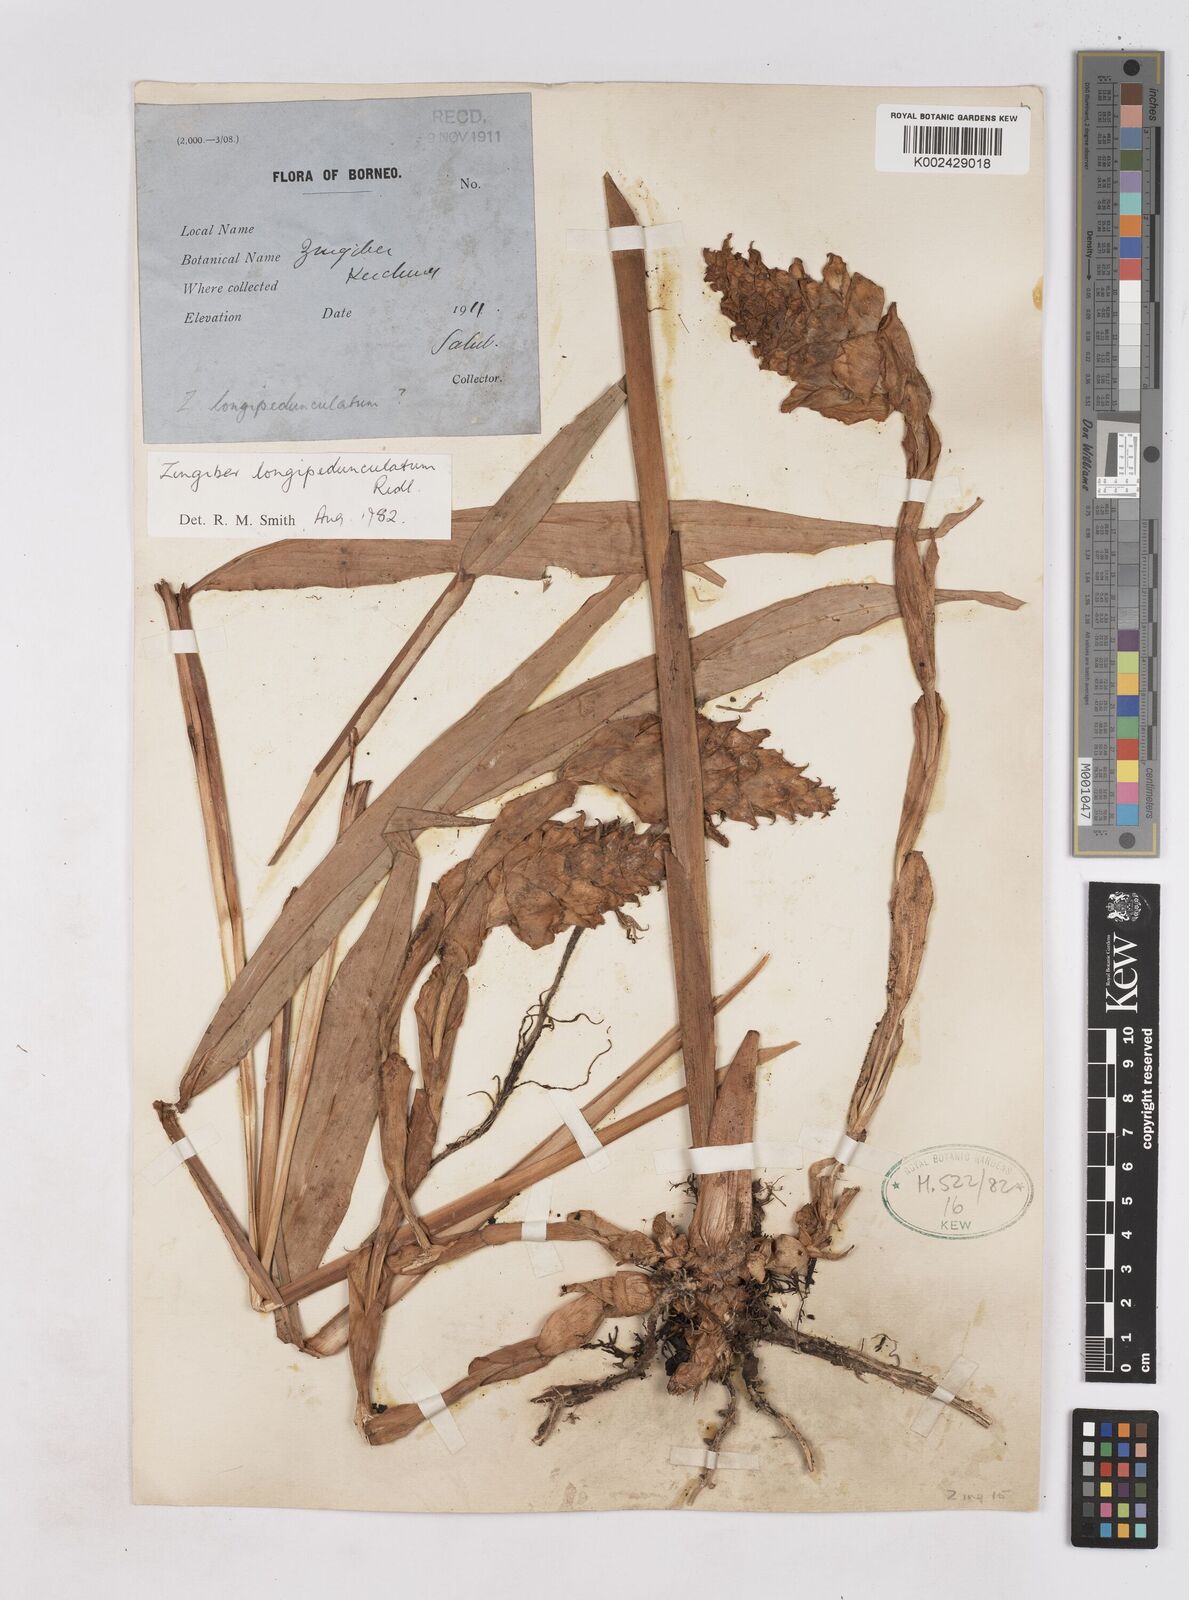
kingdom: Plantae
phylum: Tracheophyta
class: Liliopsida
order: Zingiberales
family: Zingiberaceae
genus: Zingiber
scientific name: Zingiber longipedunculatum
